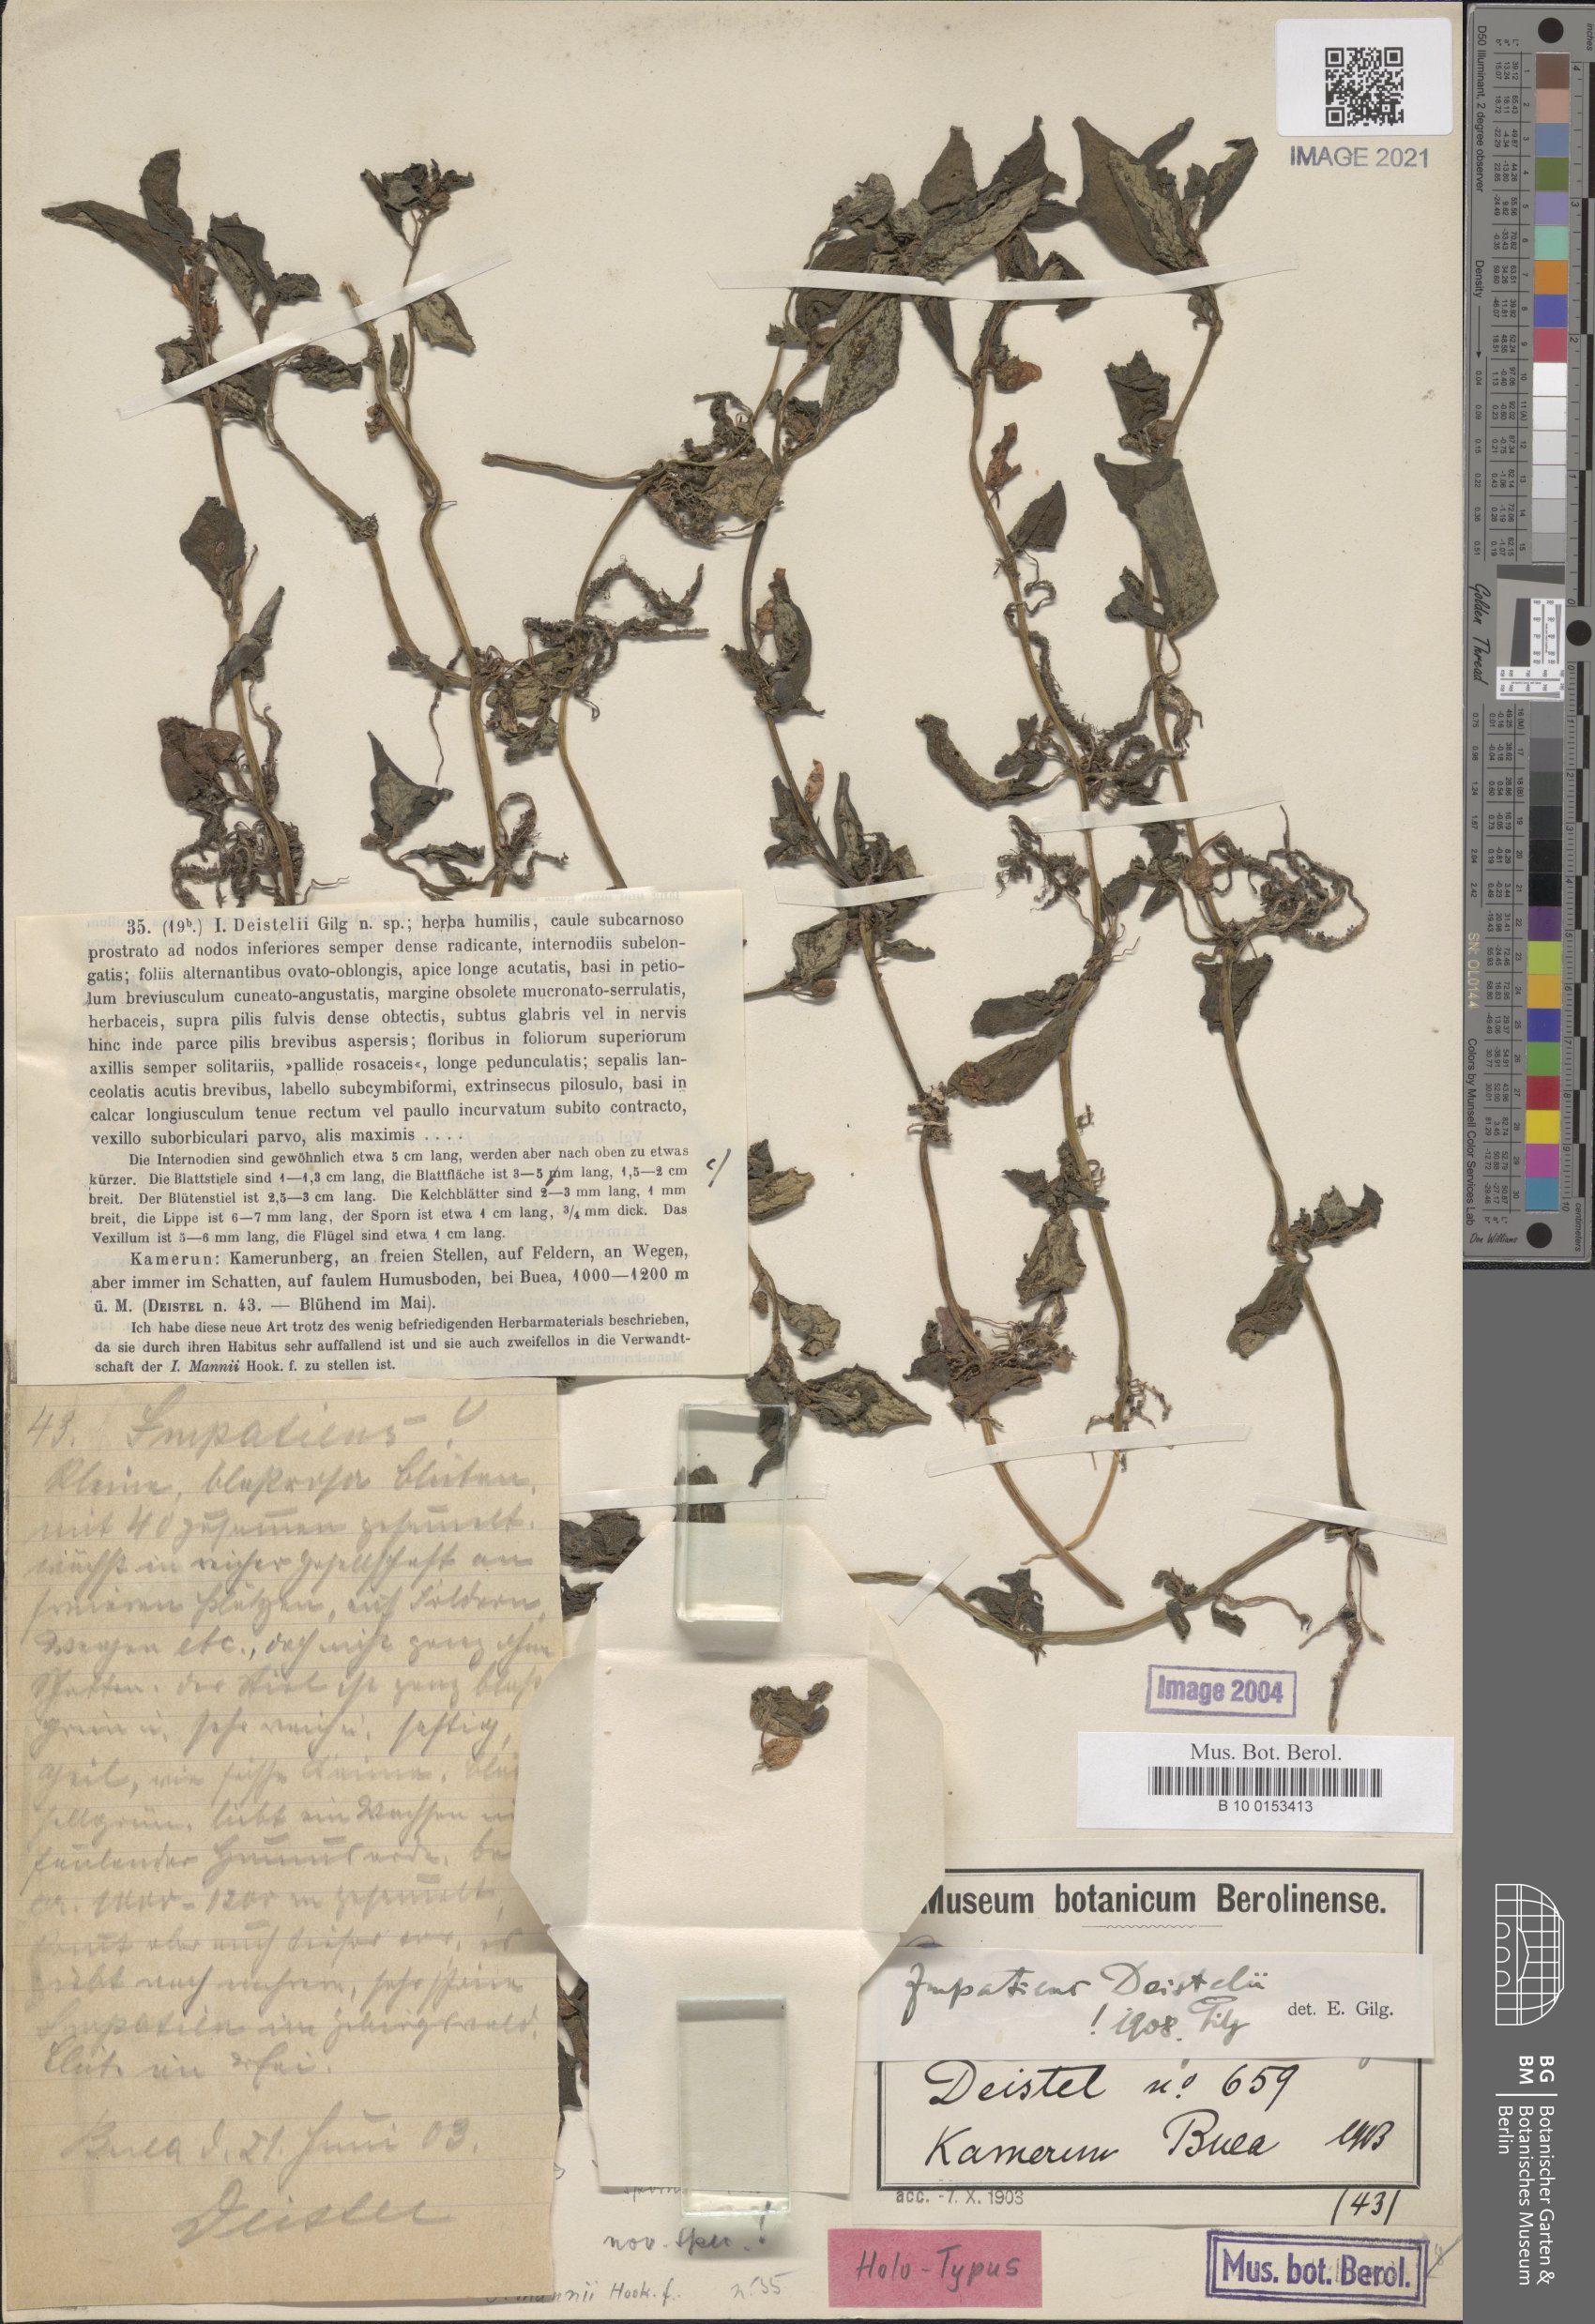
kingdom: Plantae
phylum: Tracheophyta
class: Magnoliopsida
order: Ericales
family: Balsaminaceae
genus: Impatiens
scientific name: Impatiens mannii
